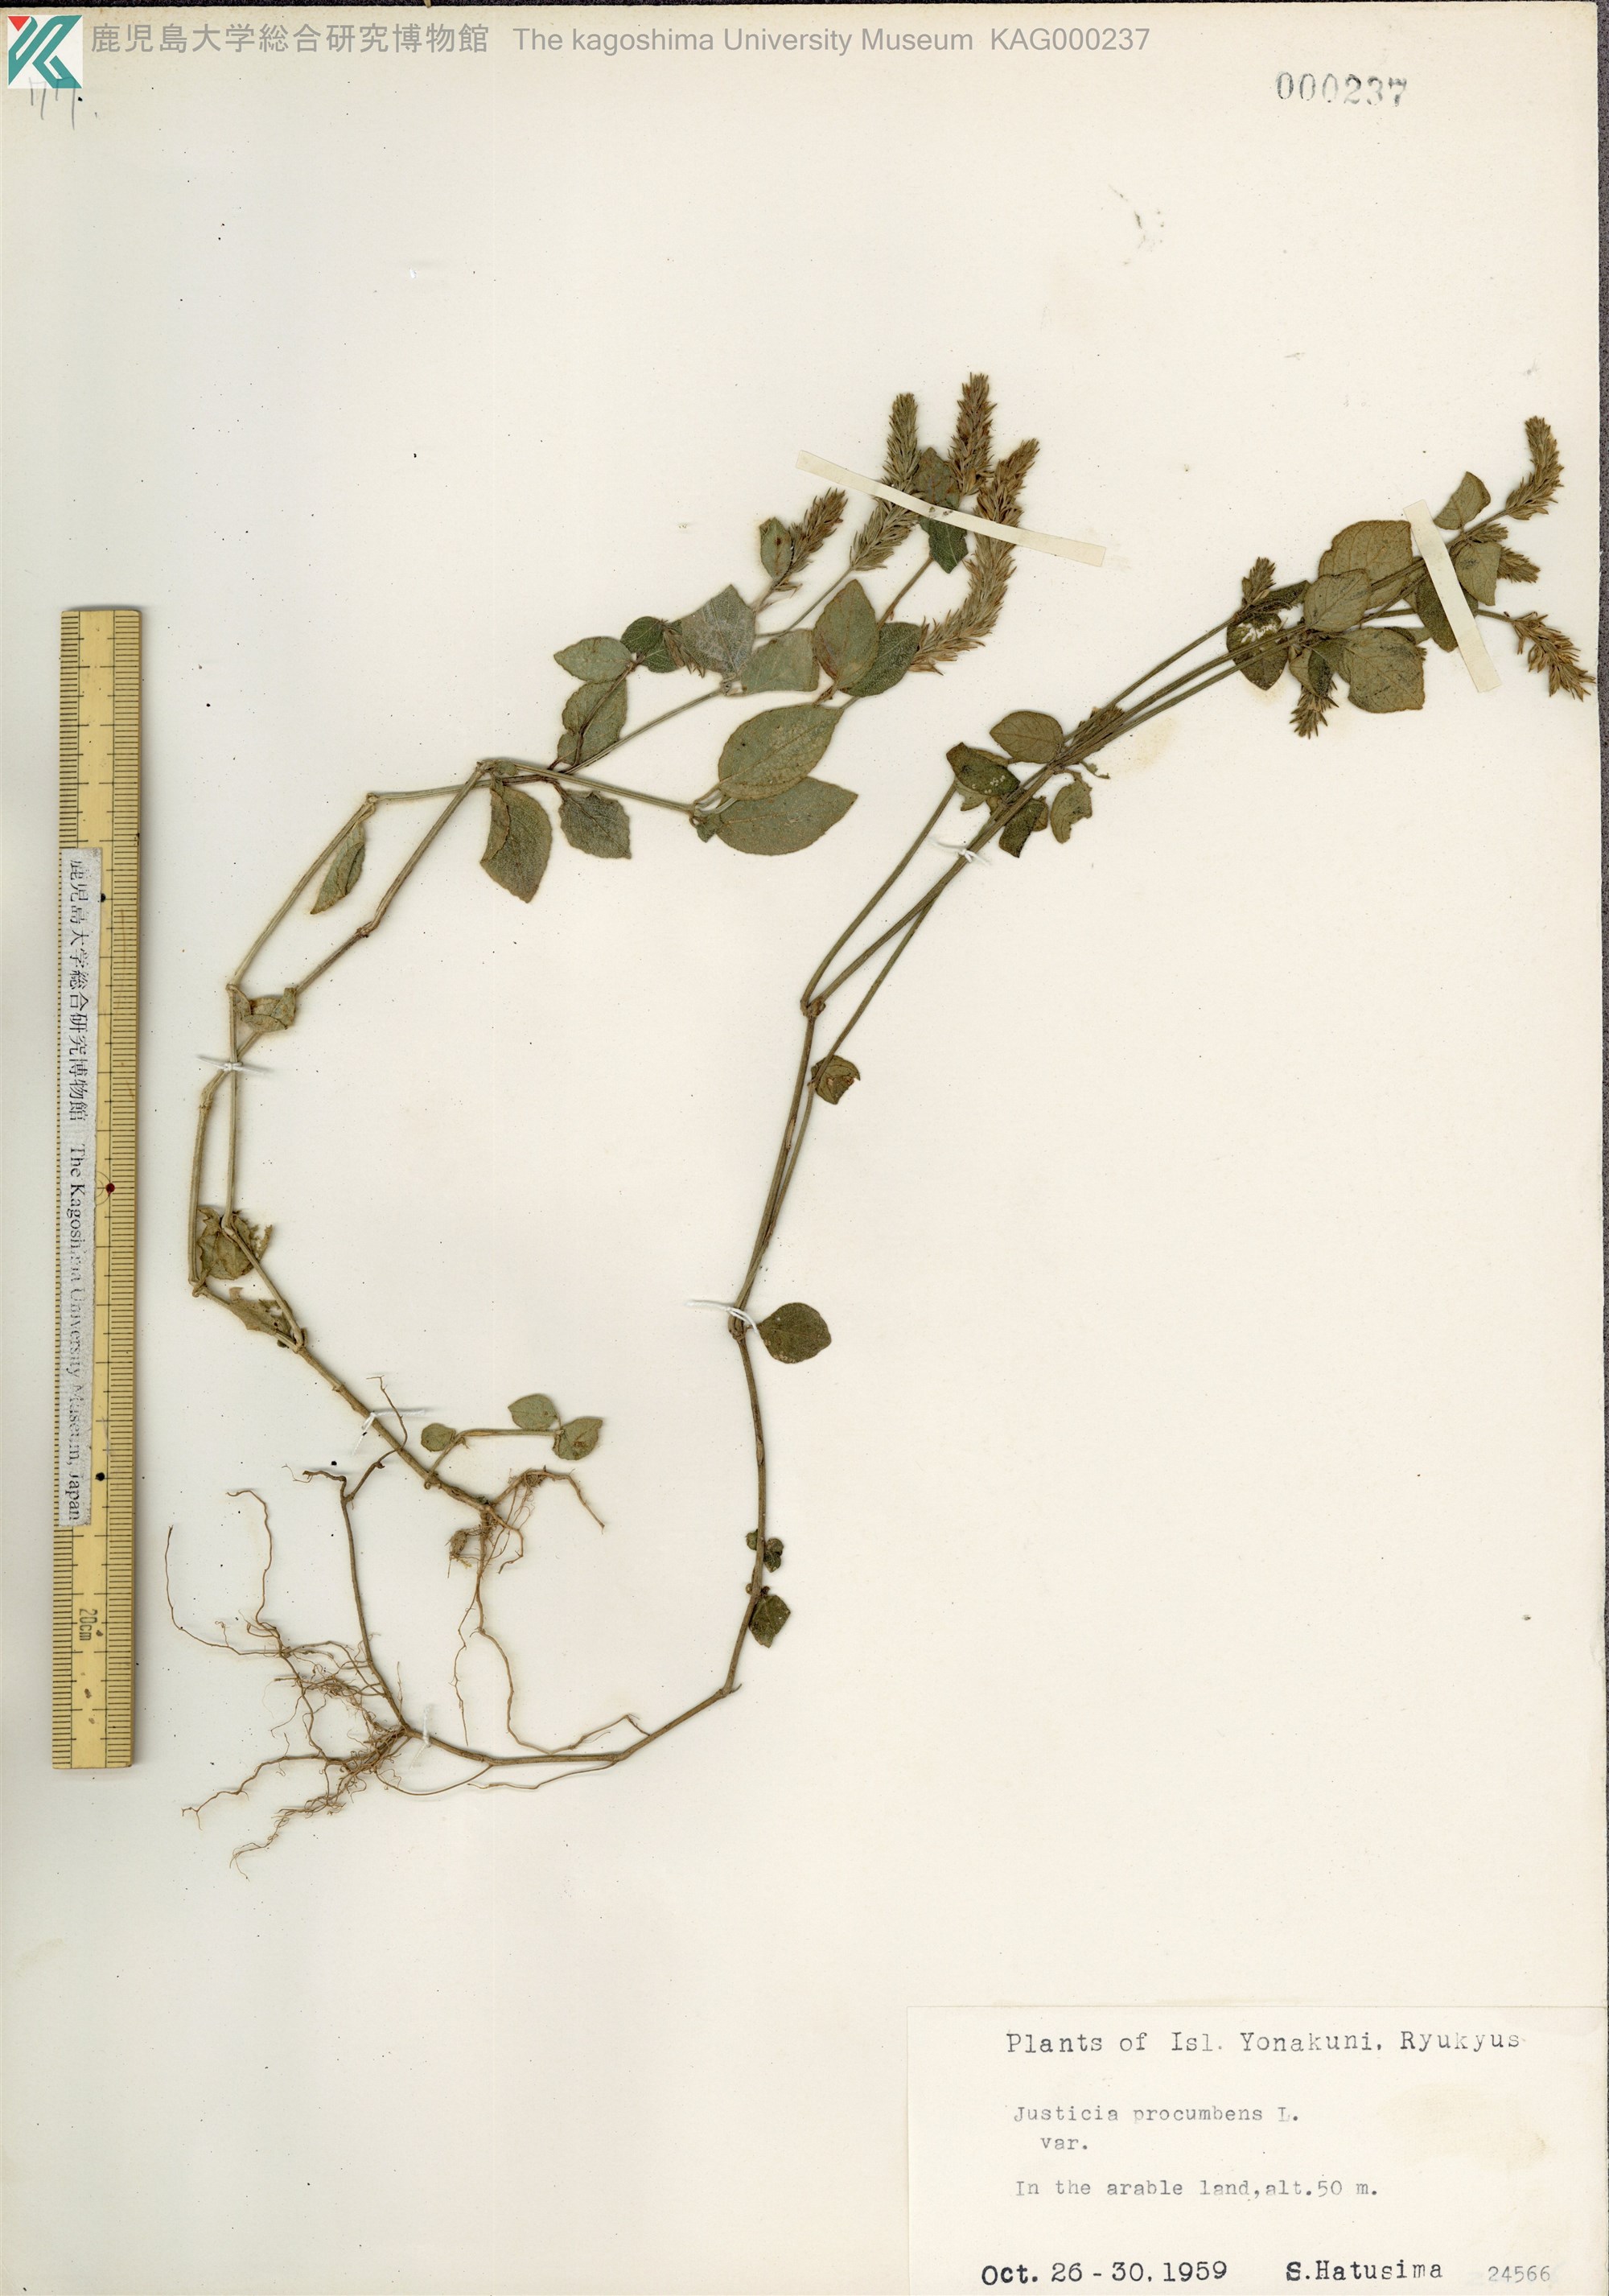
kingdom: Plantae
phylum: Tracheophyta
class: Magnoliopsida
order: Lamiales
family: Acanthaceae
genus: Rostellularia
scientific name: Rostellularia procumbens
